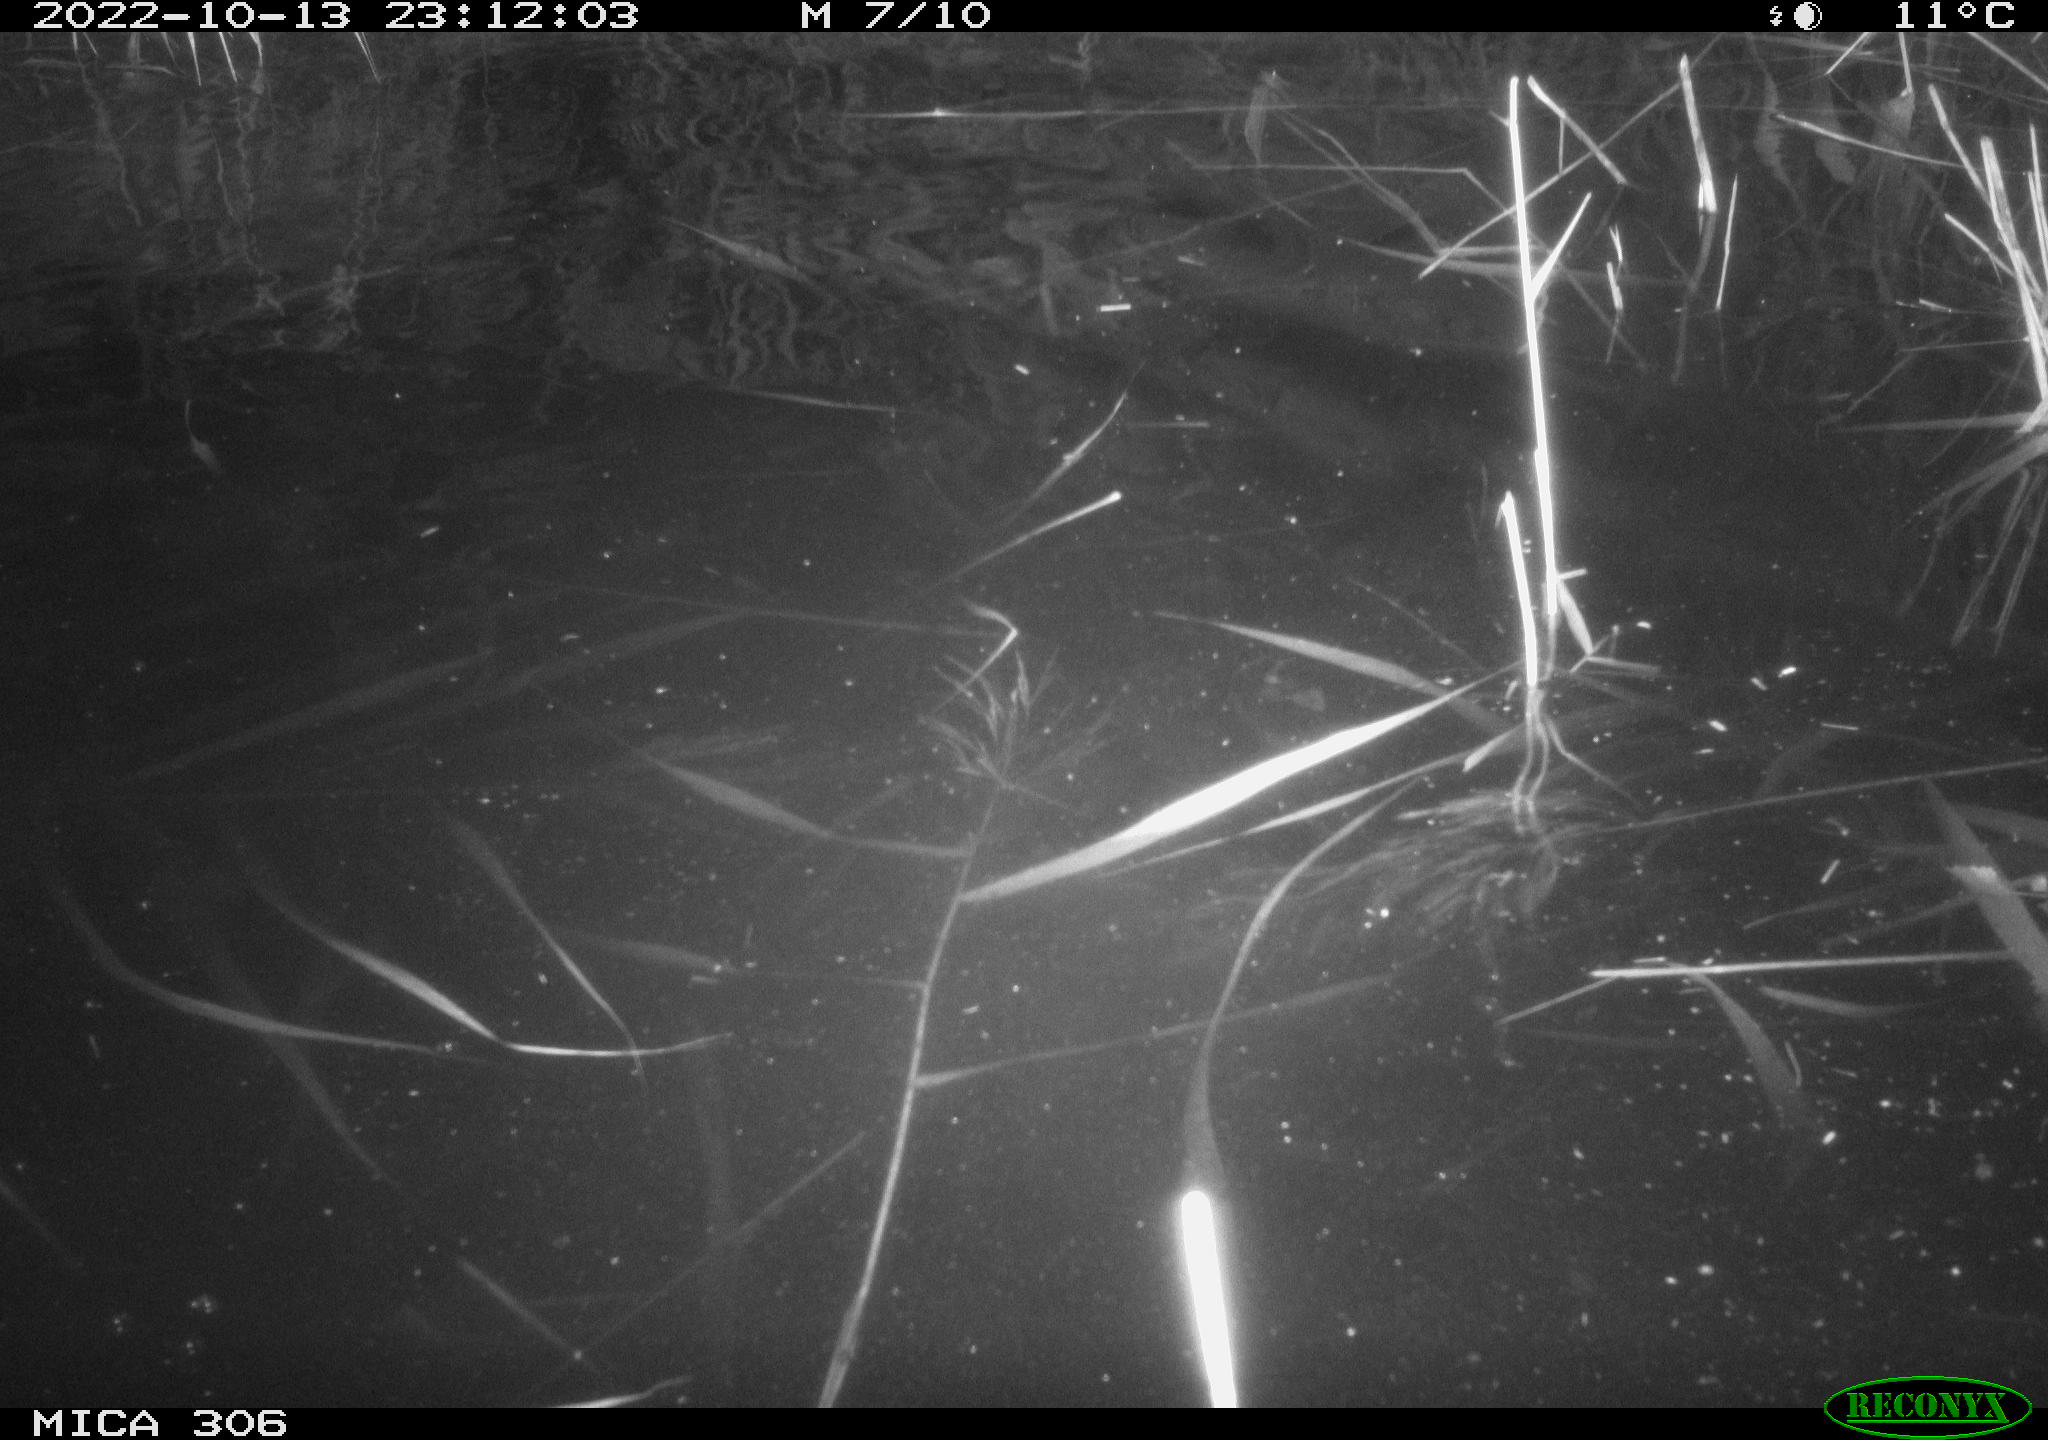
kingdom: Animalia
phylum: Chordata
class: Mammalia
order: Rodentia
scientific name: Rodentia
